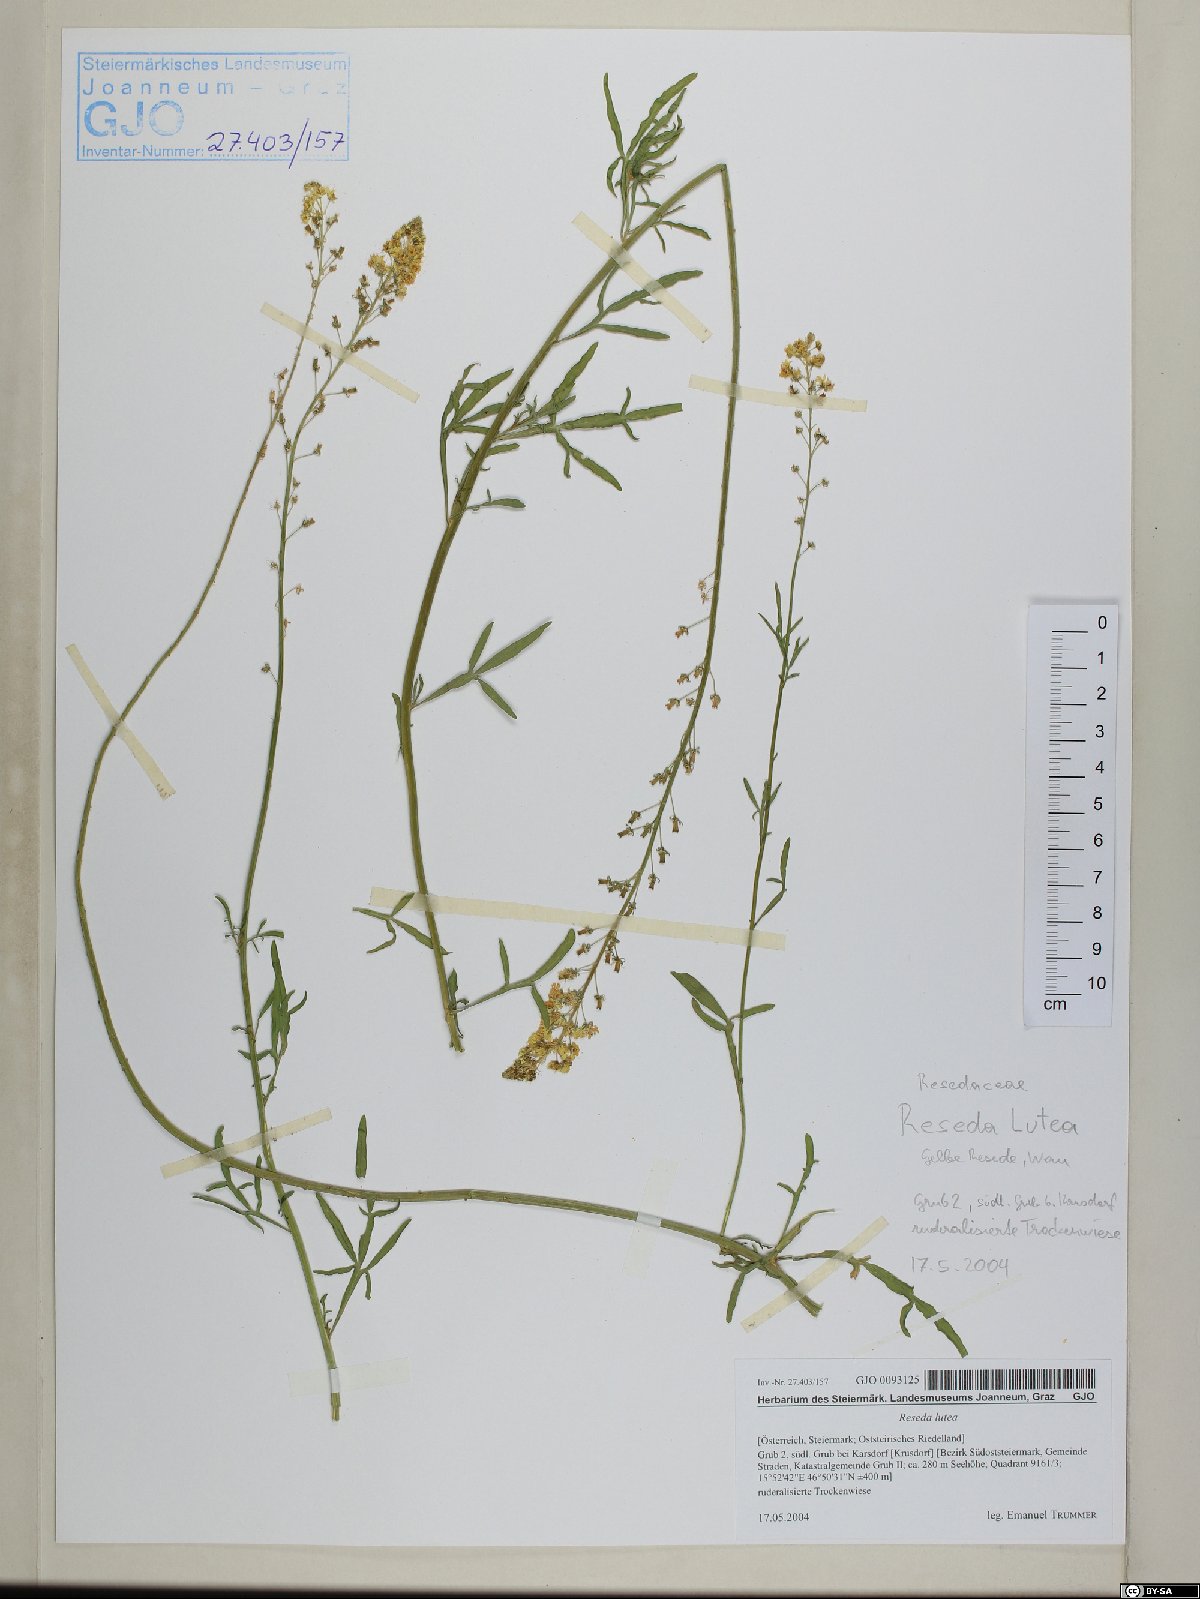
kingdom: Plantae
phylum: Tracheophyta
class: Magnoliopsida
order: Brassicales
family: Resedaceae
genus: Reseda
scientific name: Reseda lutea
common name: Wild mignonette
